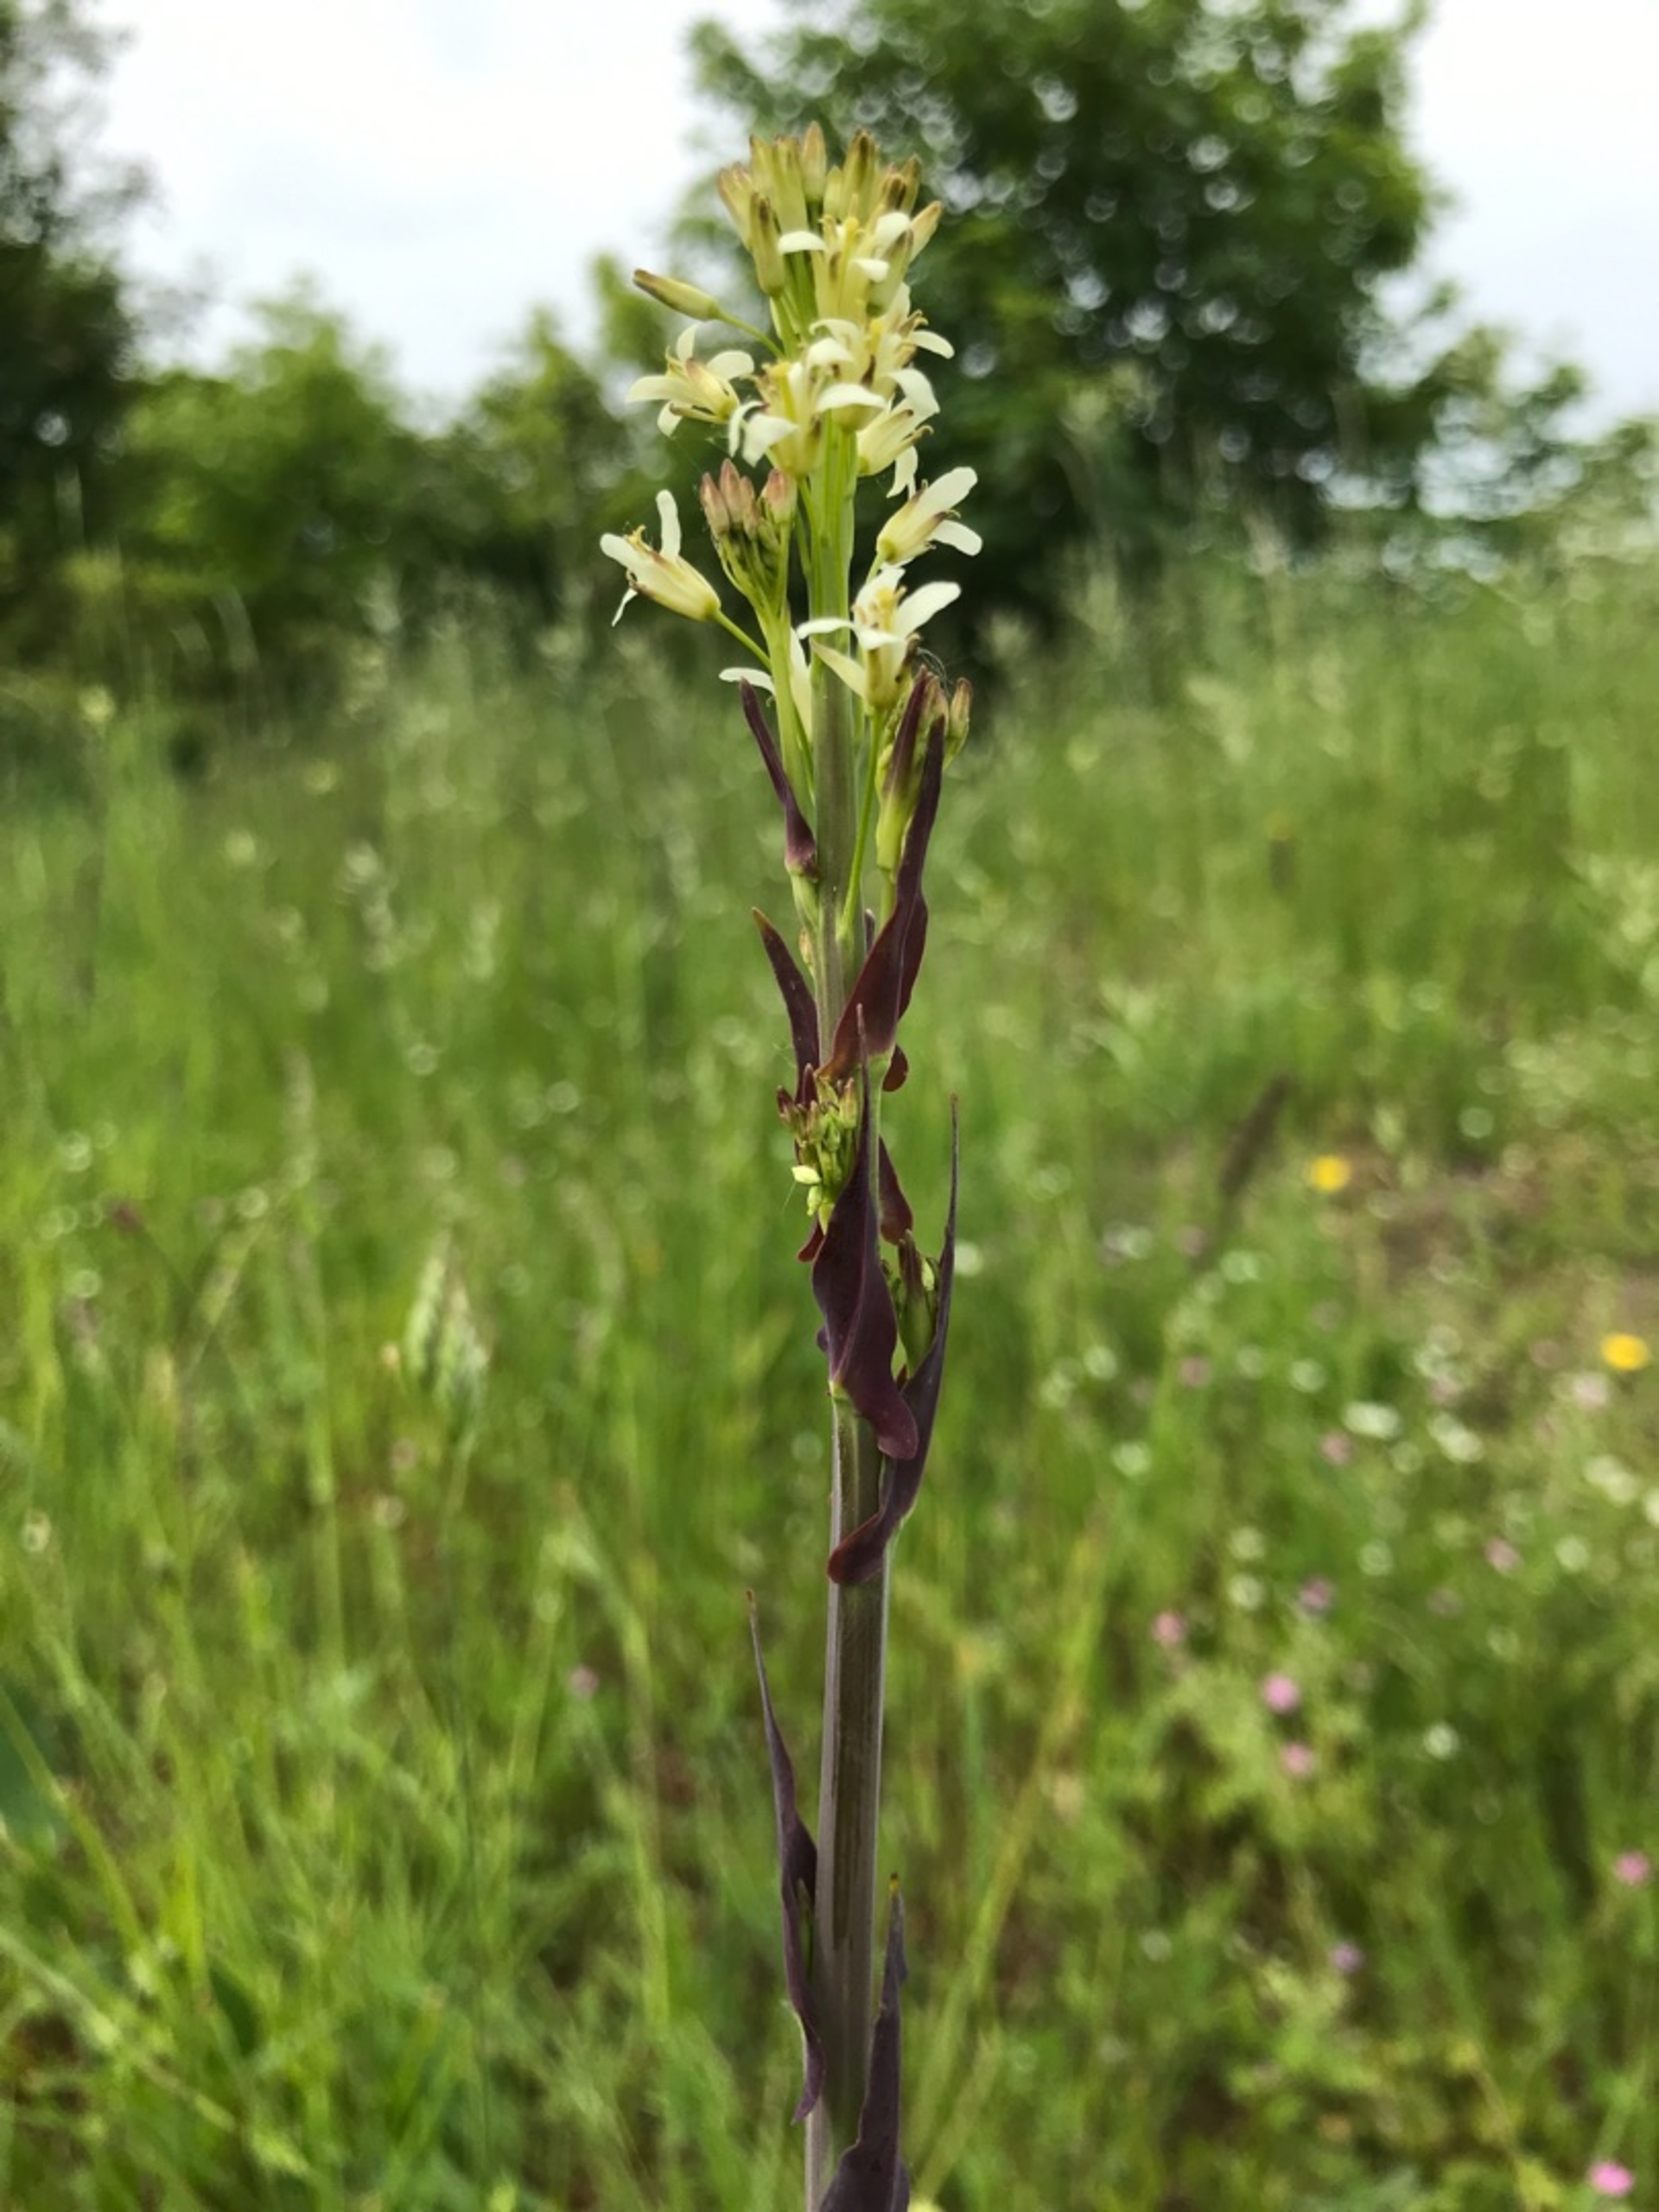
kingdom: Plantae
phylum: Tracheophyta
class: Magnoliopsida
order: Brassicales
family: Brassicaceae
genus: Turritis
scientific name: Turritis glabra
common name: Tårnurt
